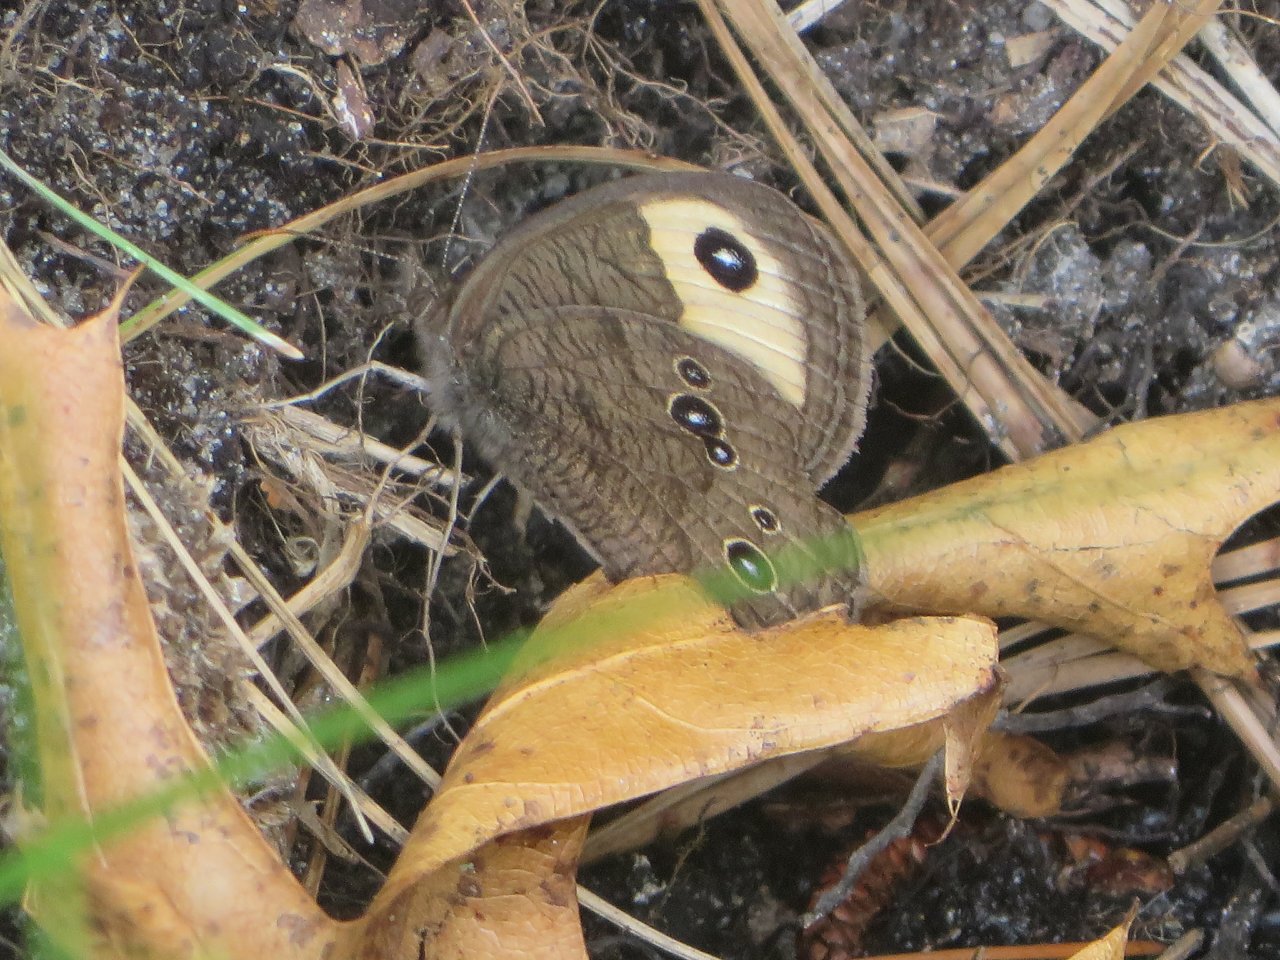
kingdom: Animalia
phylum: Arthropoda
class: Insecta
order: Lepidoptera
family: Nymphalidae
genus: Cercyonis
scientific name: Cercyonis pegala
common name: Common Wood-Nymph
